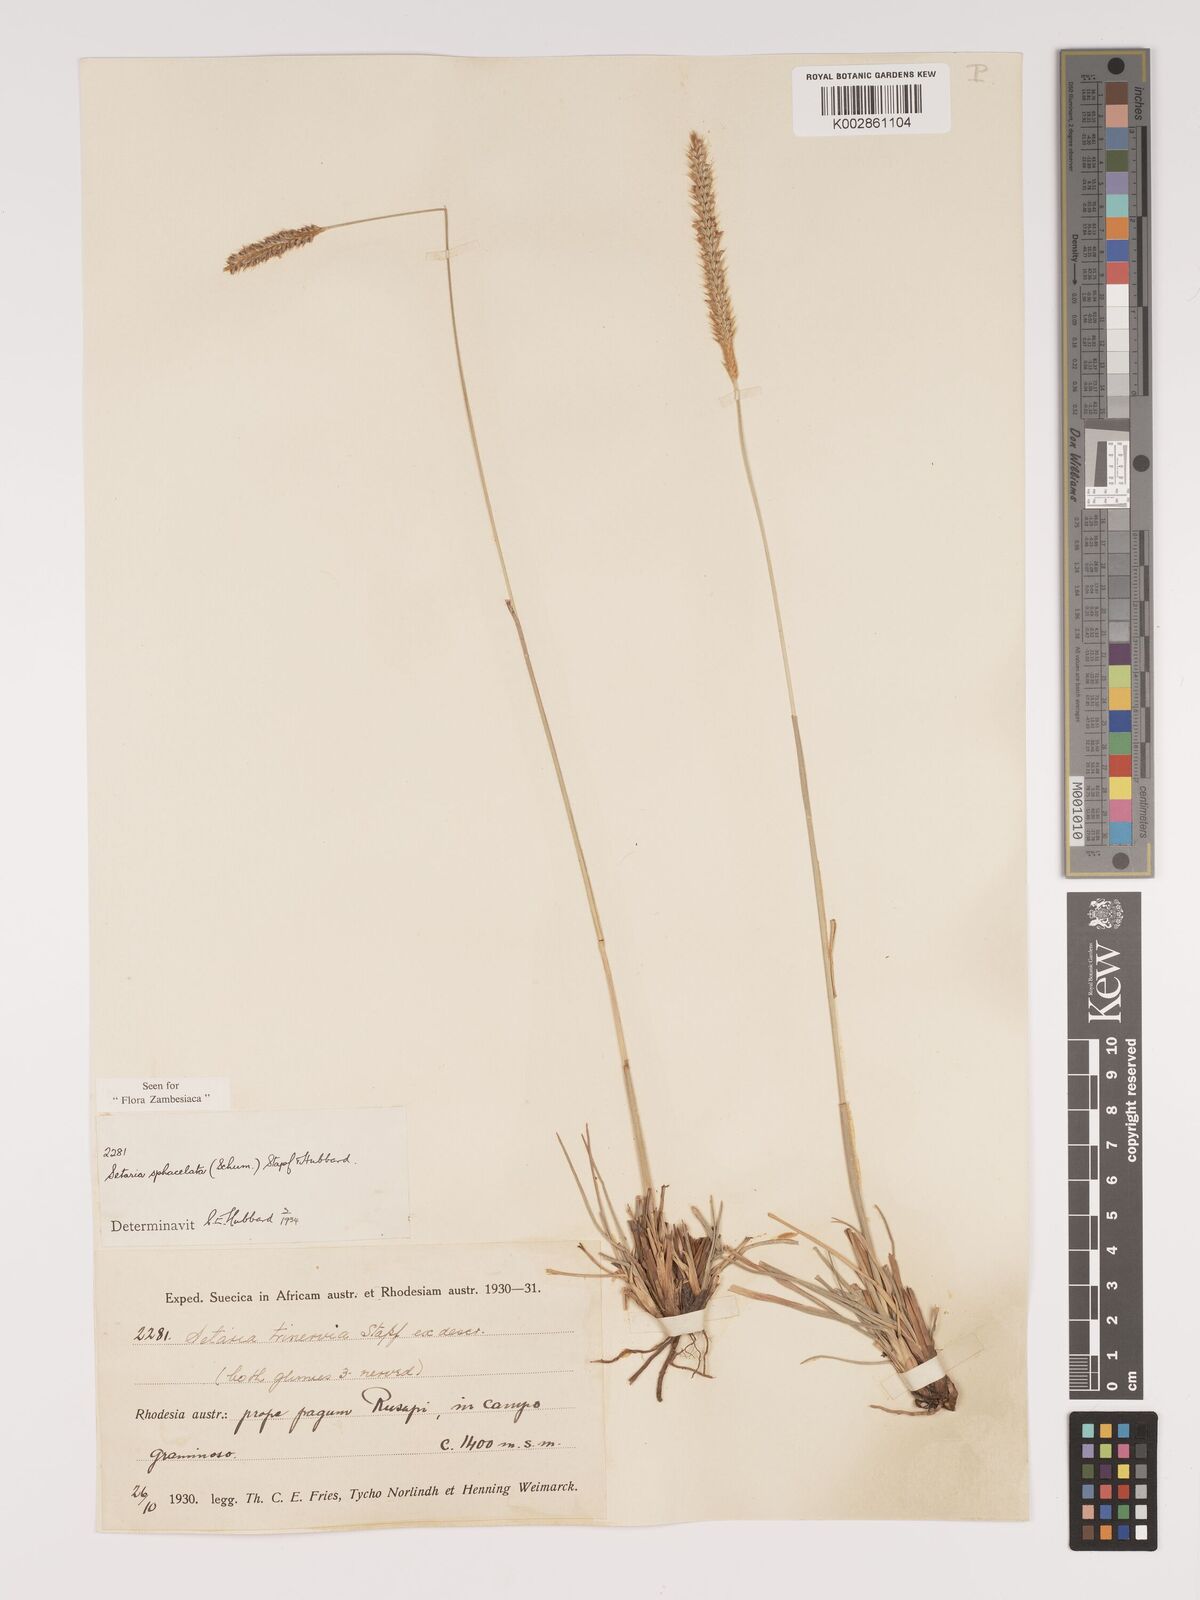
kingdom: Plantae
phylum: Tracheophyta
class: Liliopsida
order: Poales
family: Poaceae
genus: Setaria
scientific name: Setaria sphacelata
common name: African bristlegrass
